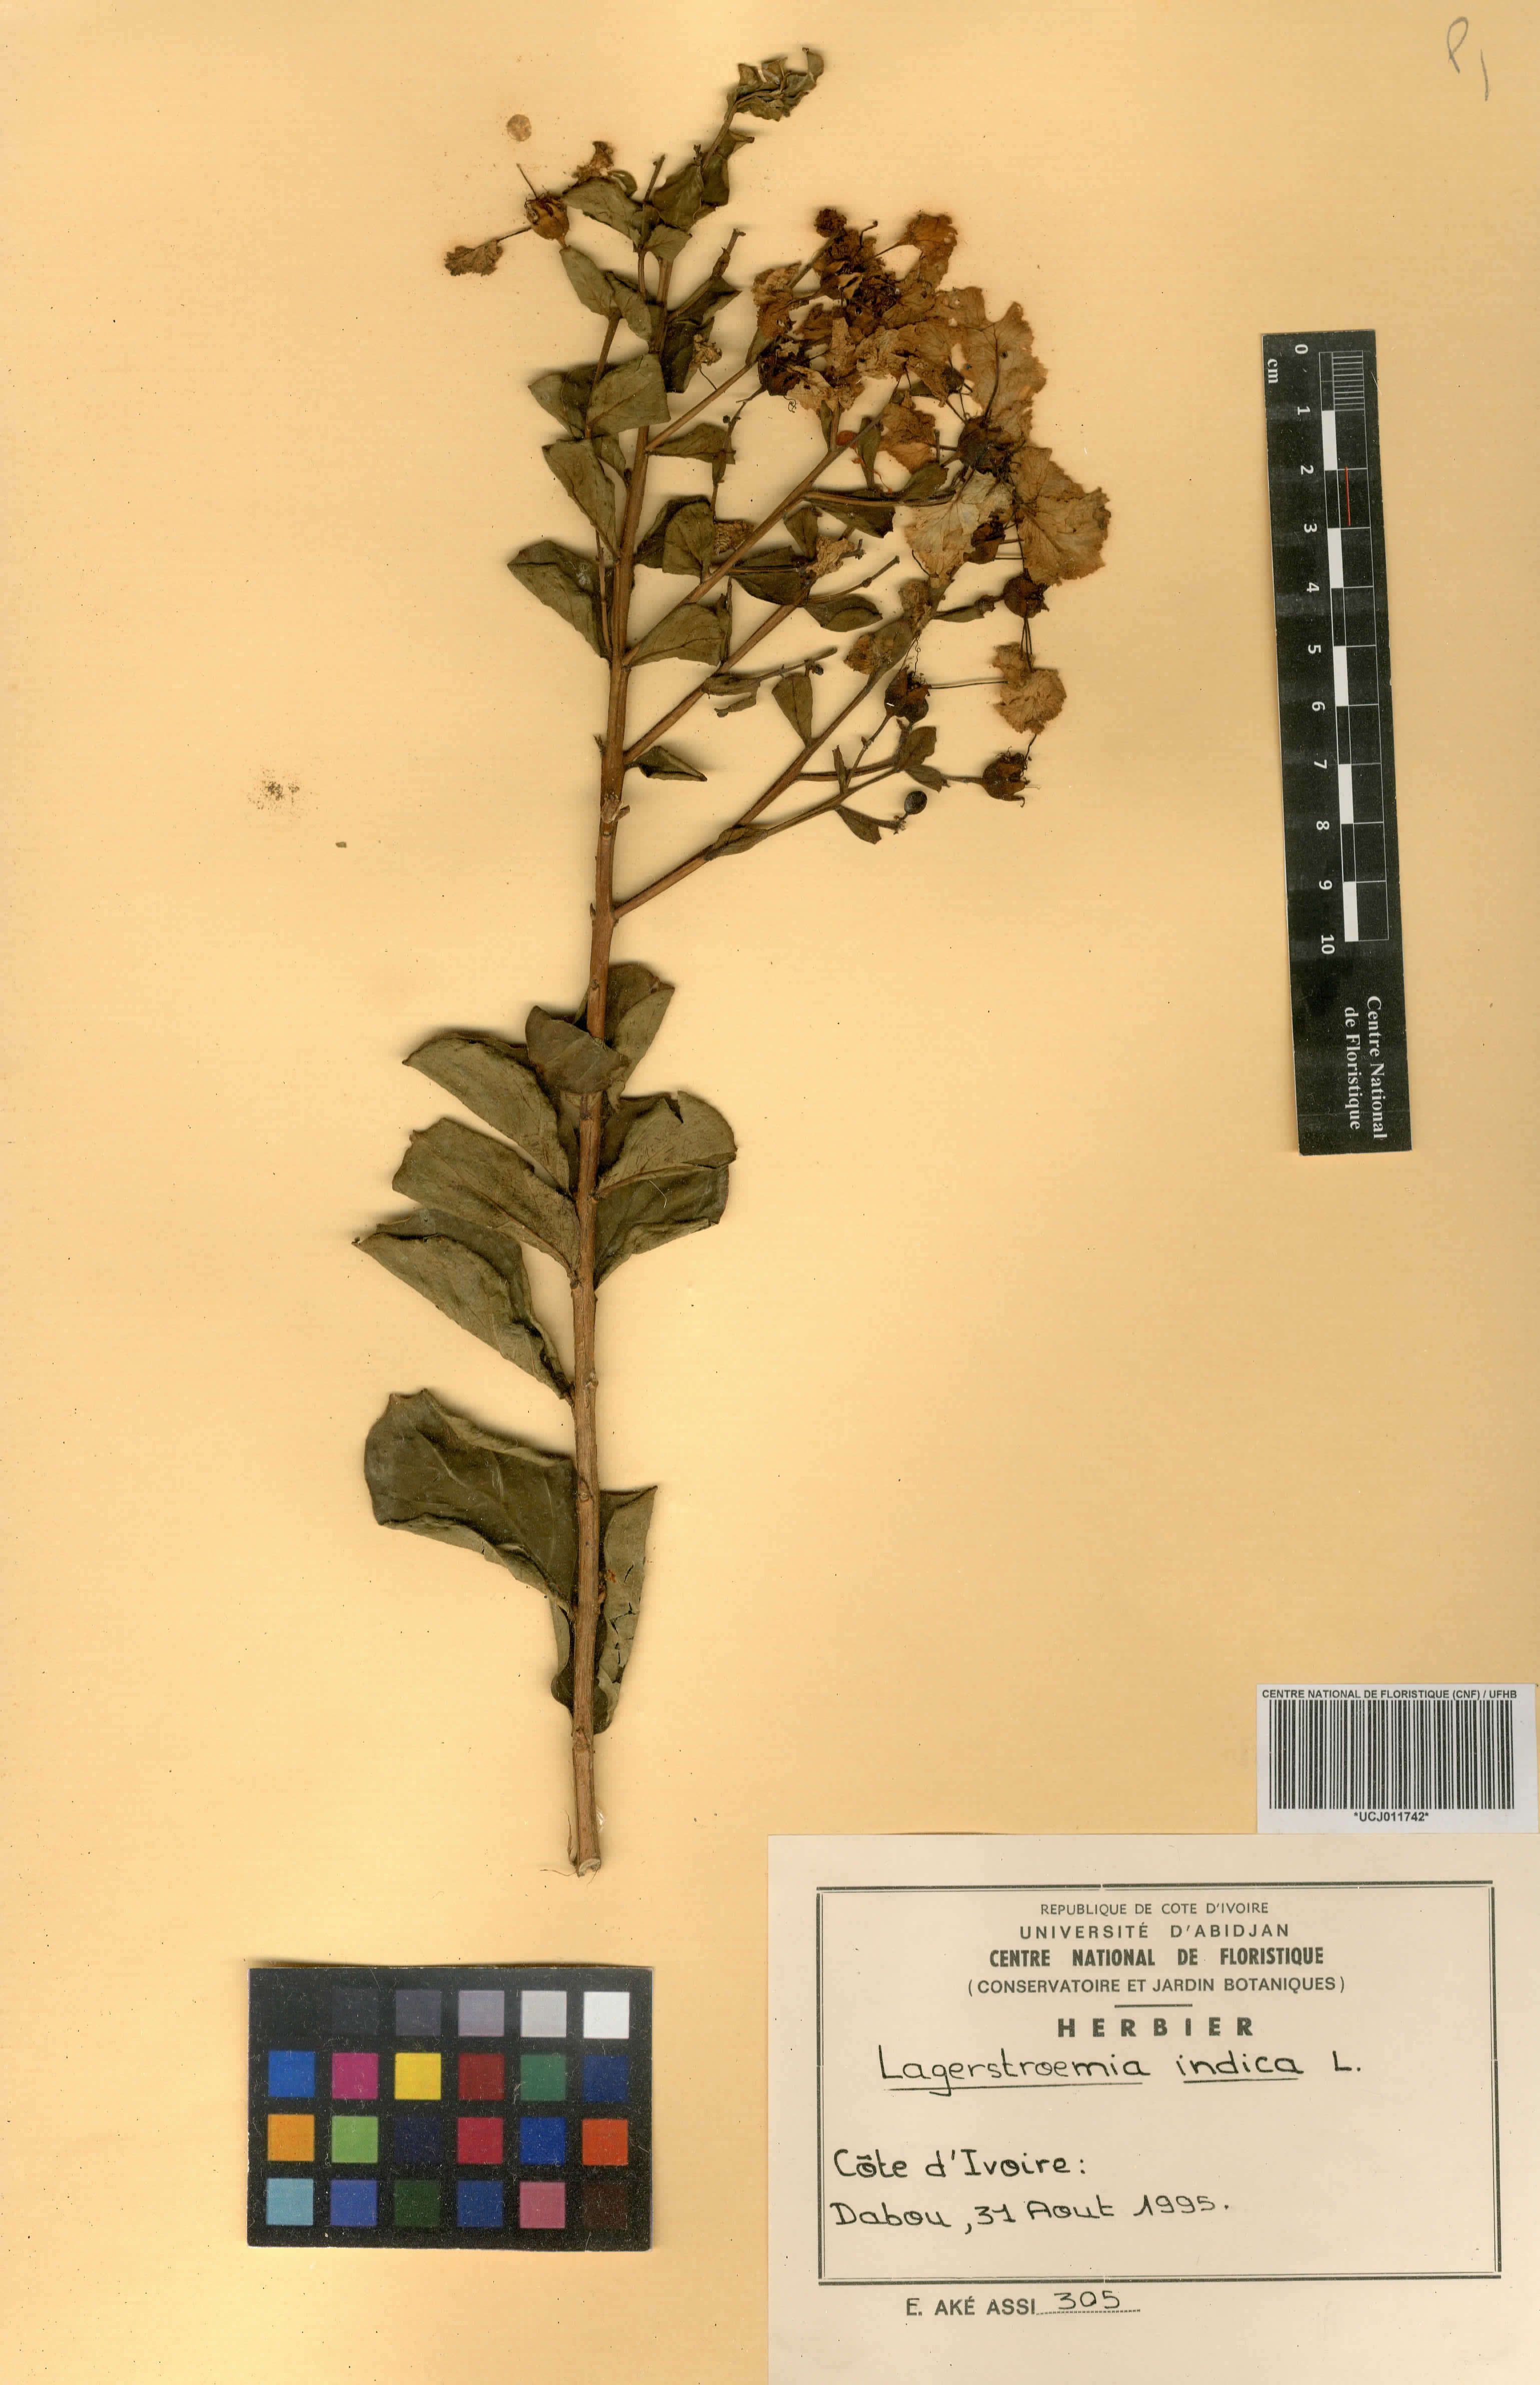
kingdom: Plantae
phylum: Tracheophyta
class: Magnoliopsida
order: Myrtales
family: Lythraceae
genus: Lagerstroemia
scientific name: Lagerstroemia indica
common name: Crape-myrtle
